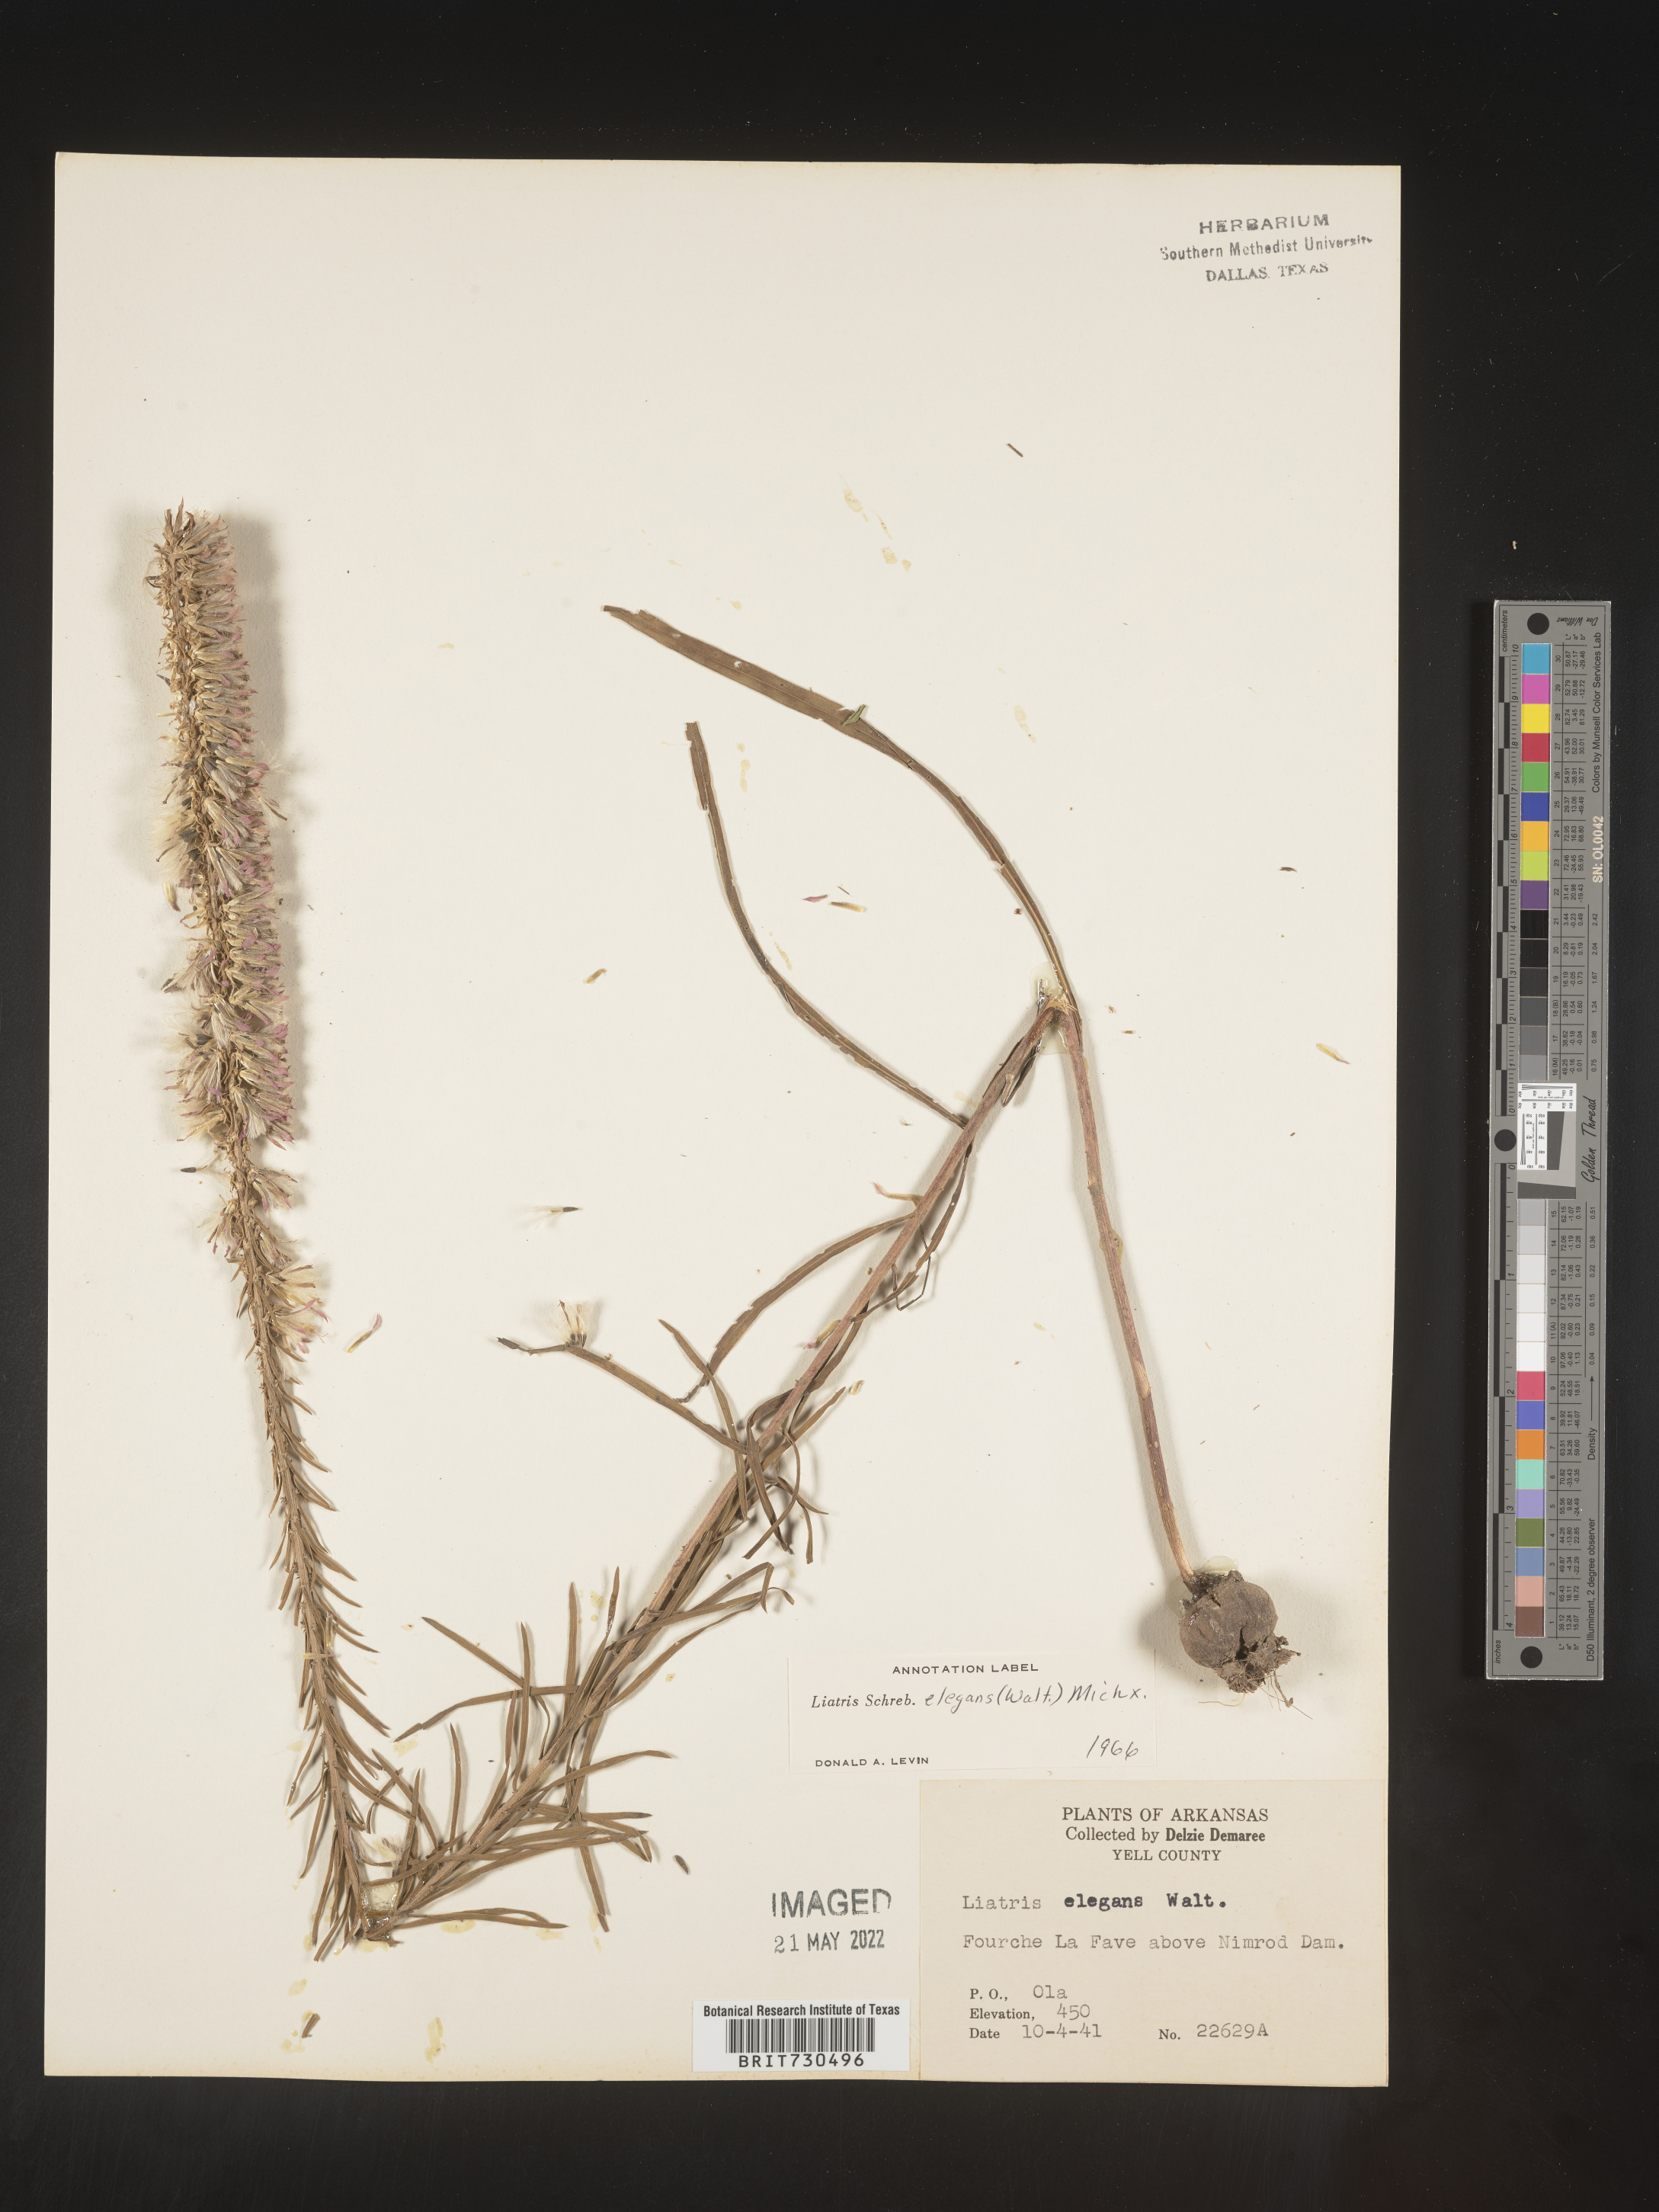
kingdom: Plantae
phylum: Tracheophyta
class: Magnoliopsida
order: Asterales
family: Asteraceae
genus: Liatris
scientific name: Liatris elegans
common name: Pinkscale gayfeather
